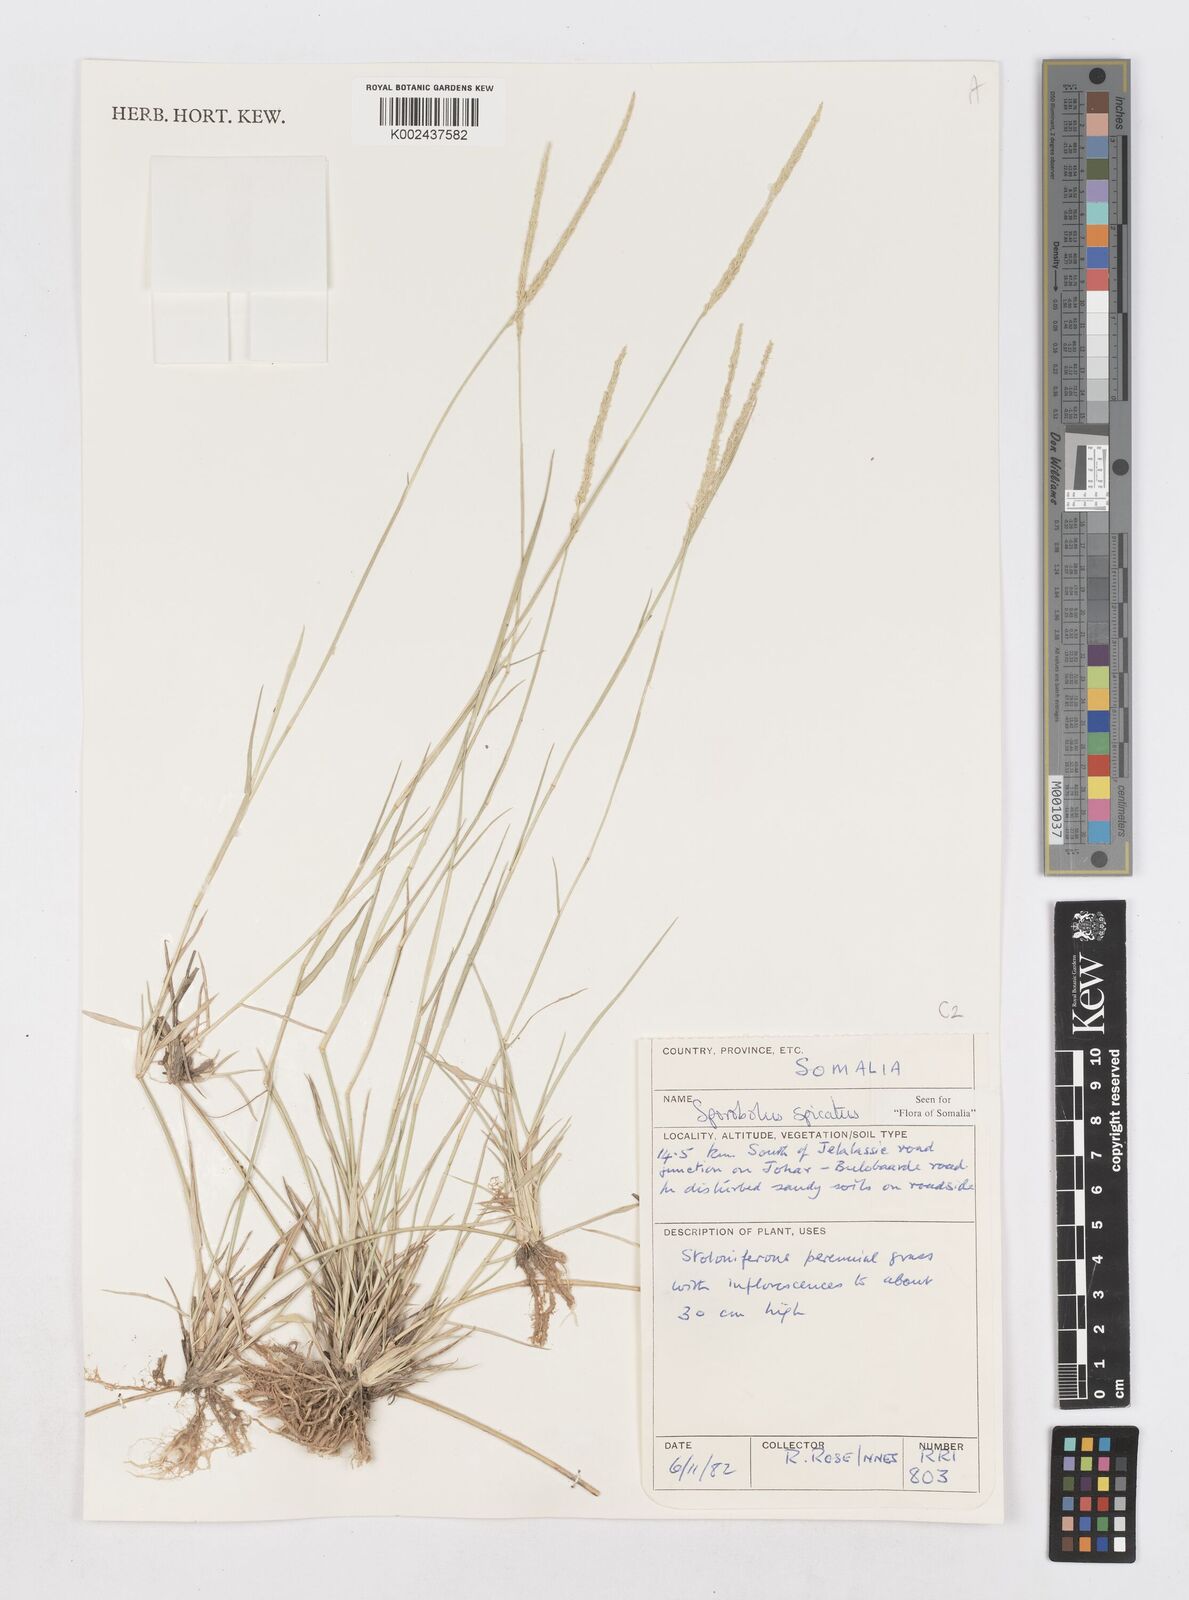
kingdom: Plantae
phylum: Tracheophyta
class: Liliopsida
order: Poales
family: Poaceae
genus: Sporobolus
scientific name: Sporobolus spicatus
